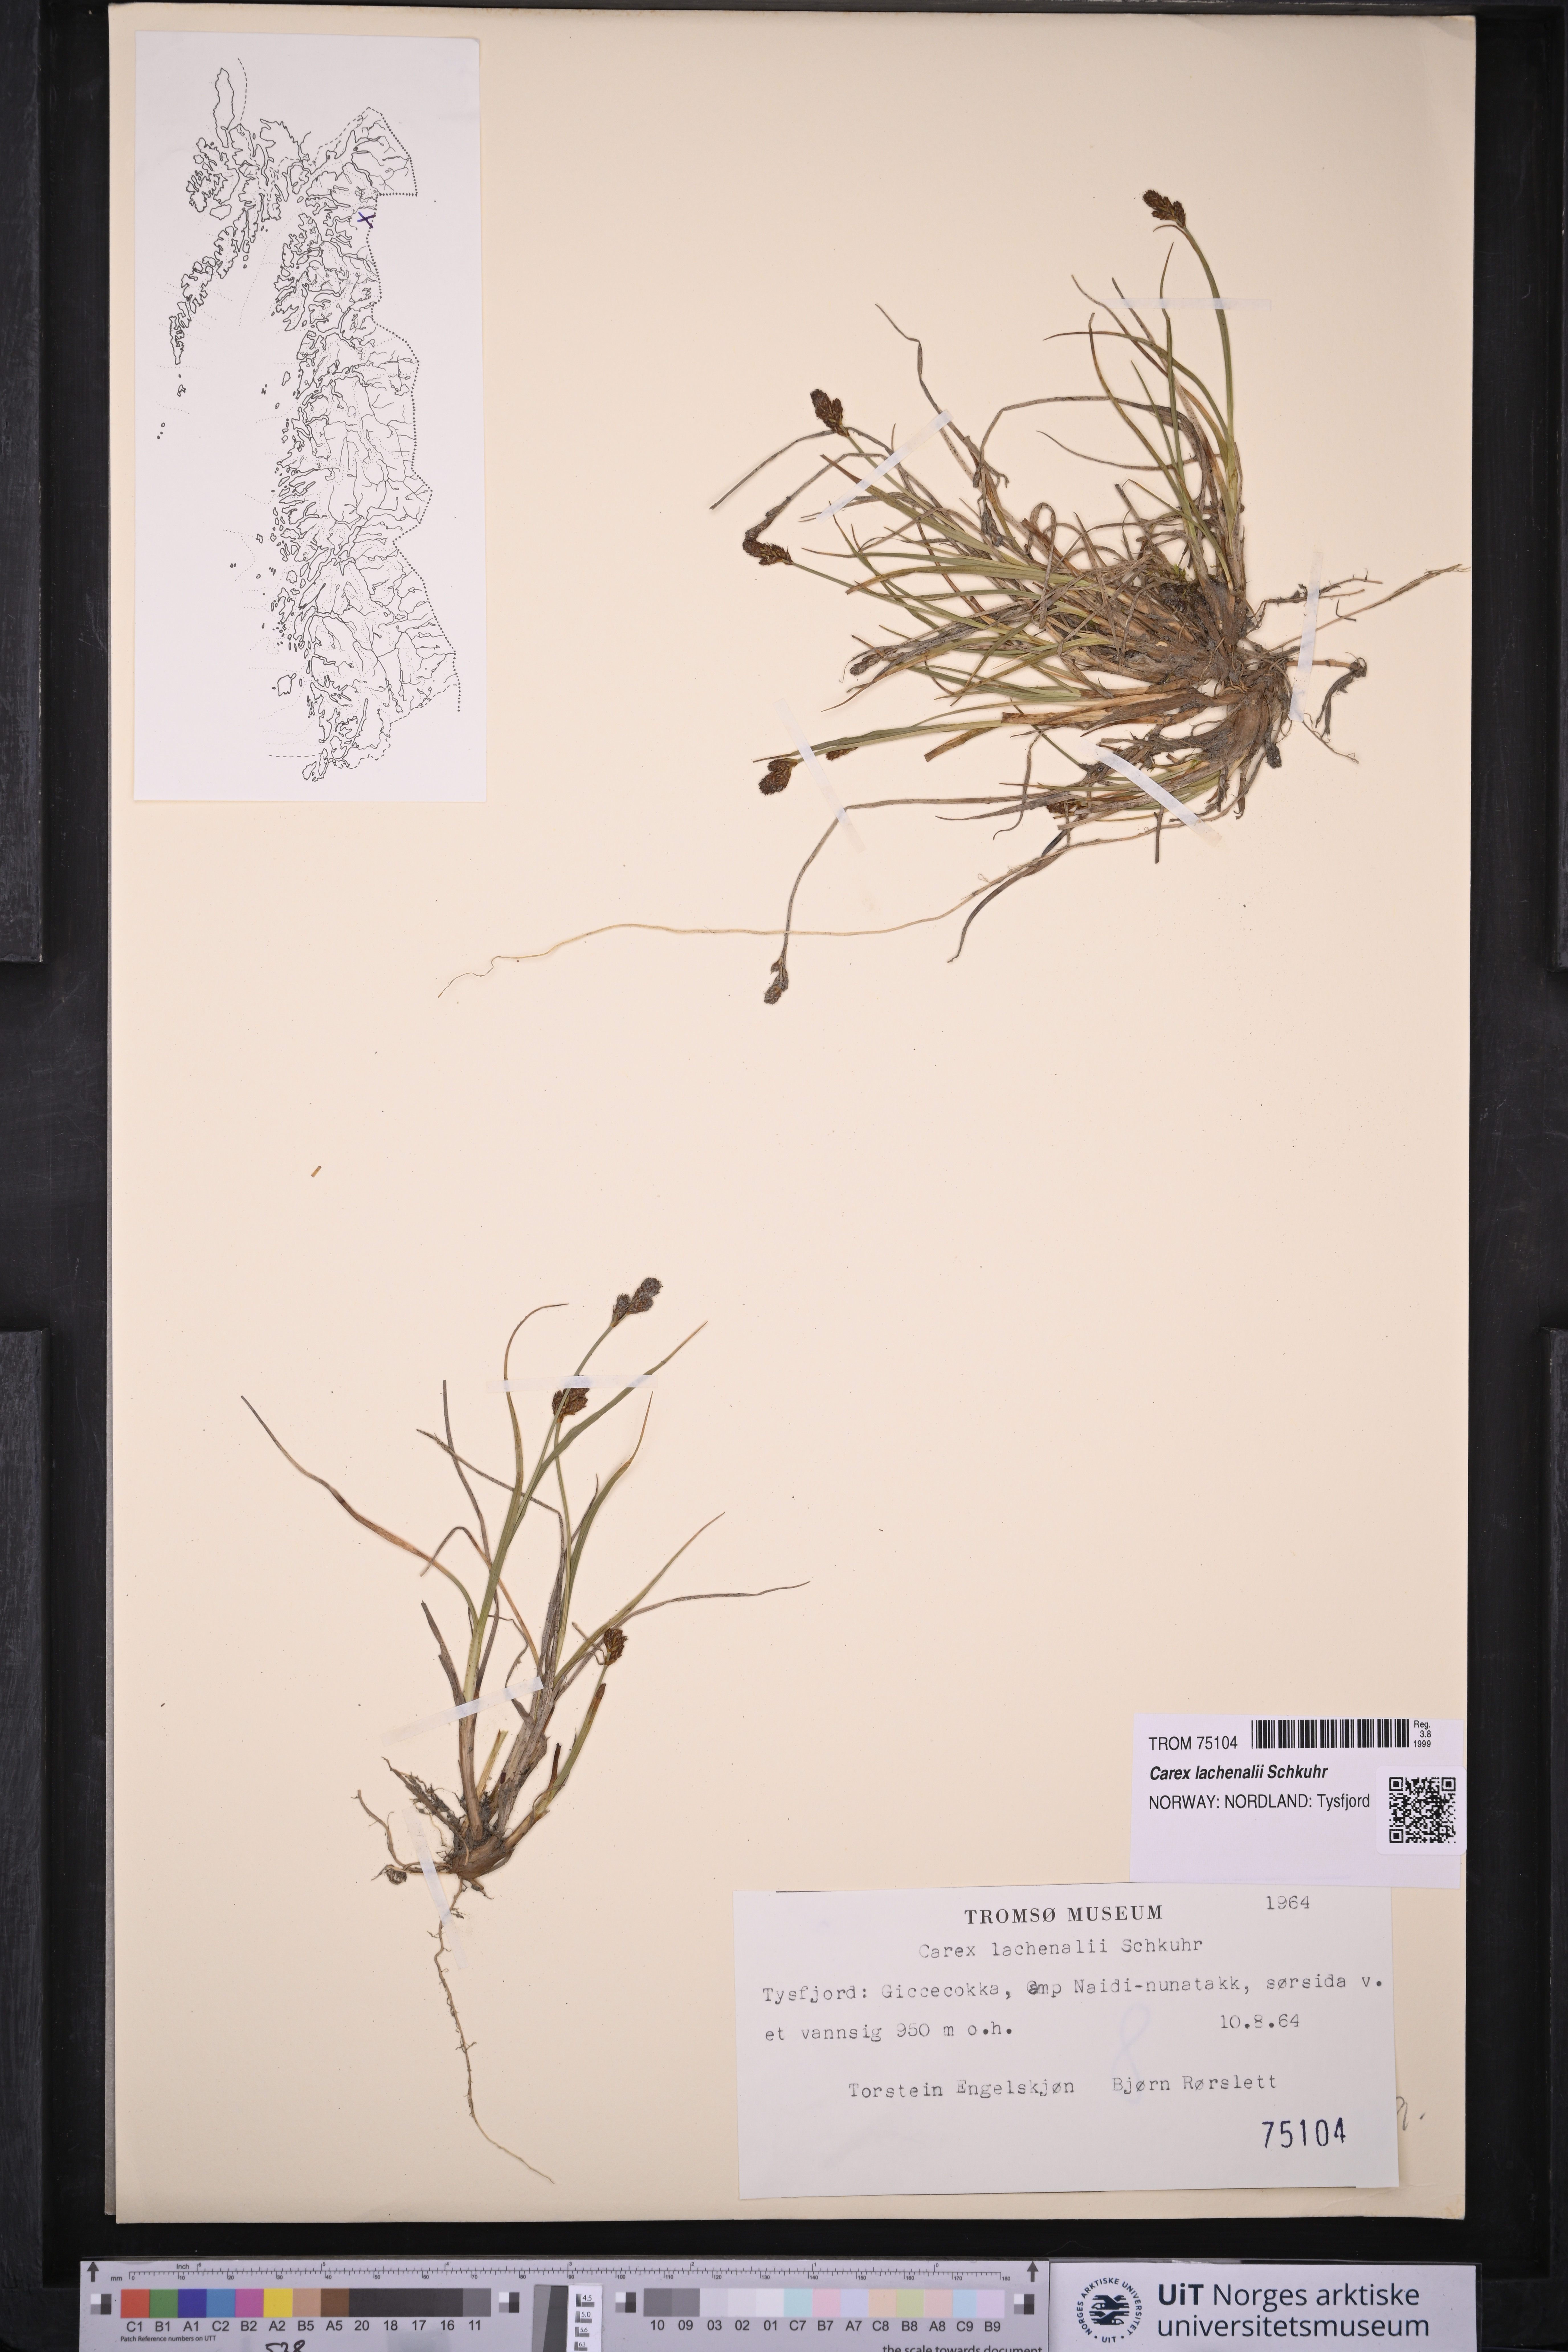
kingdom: Plantae
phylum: Tracheophyta
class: Liliopsida
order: Poales
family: Cyperaceae
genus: Carex
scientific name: Carex lachenalii
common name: Hare's-foot sedge
